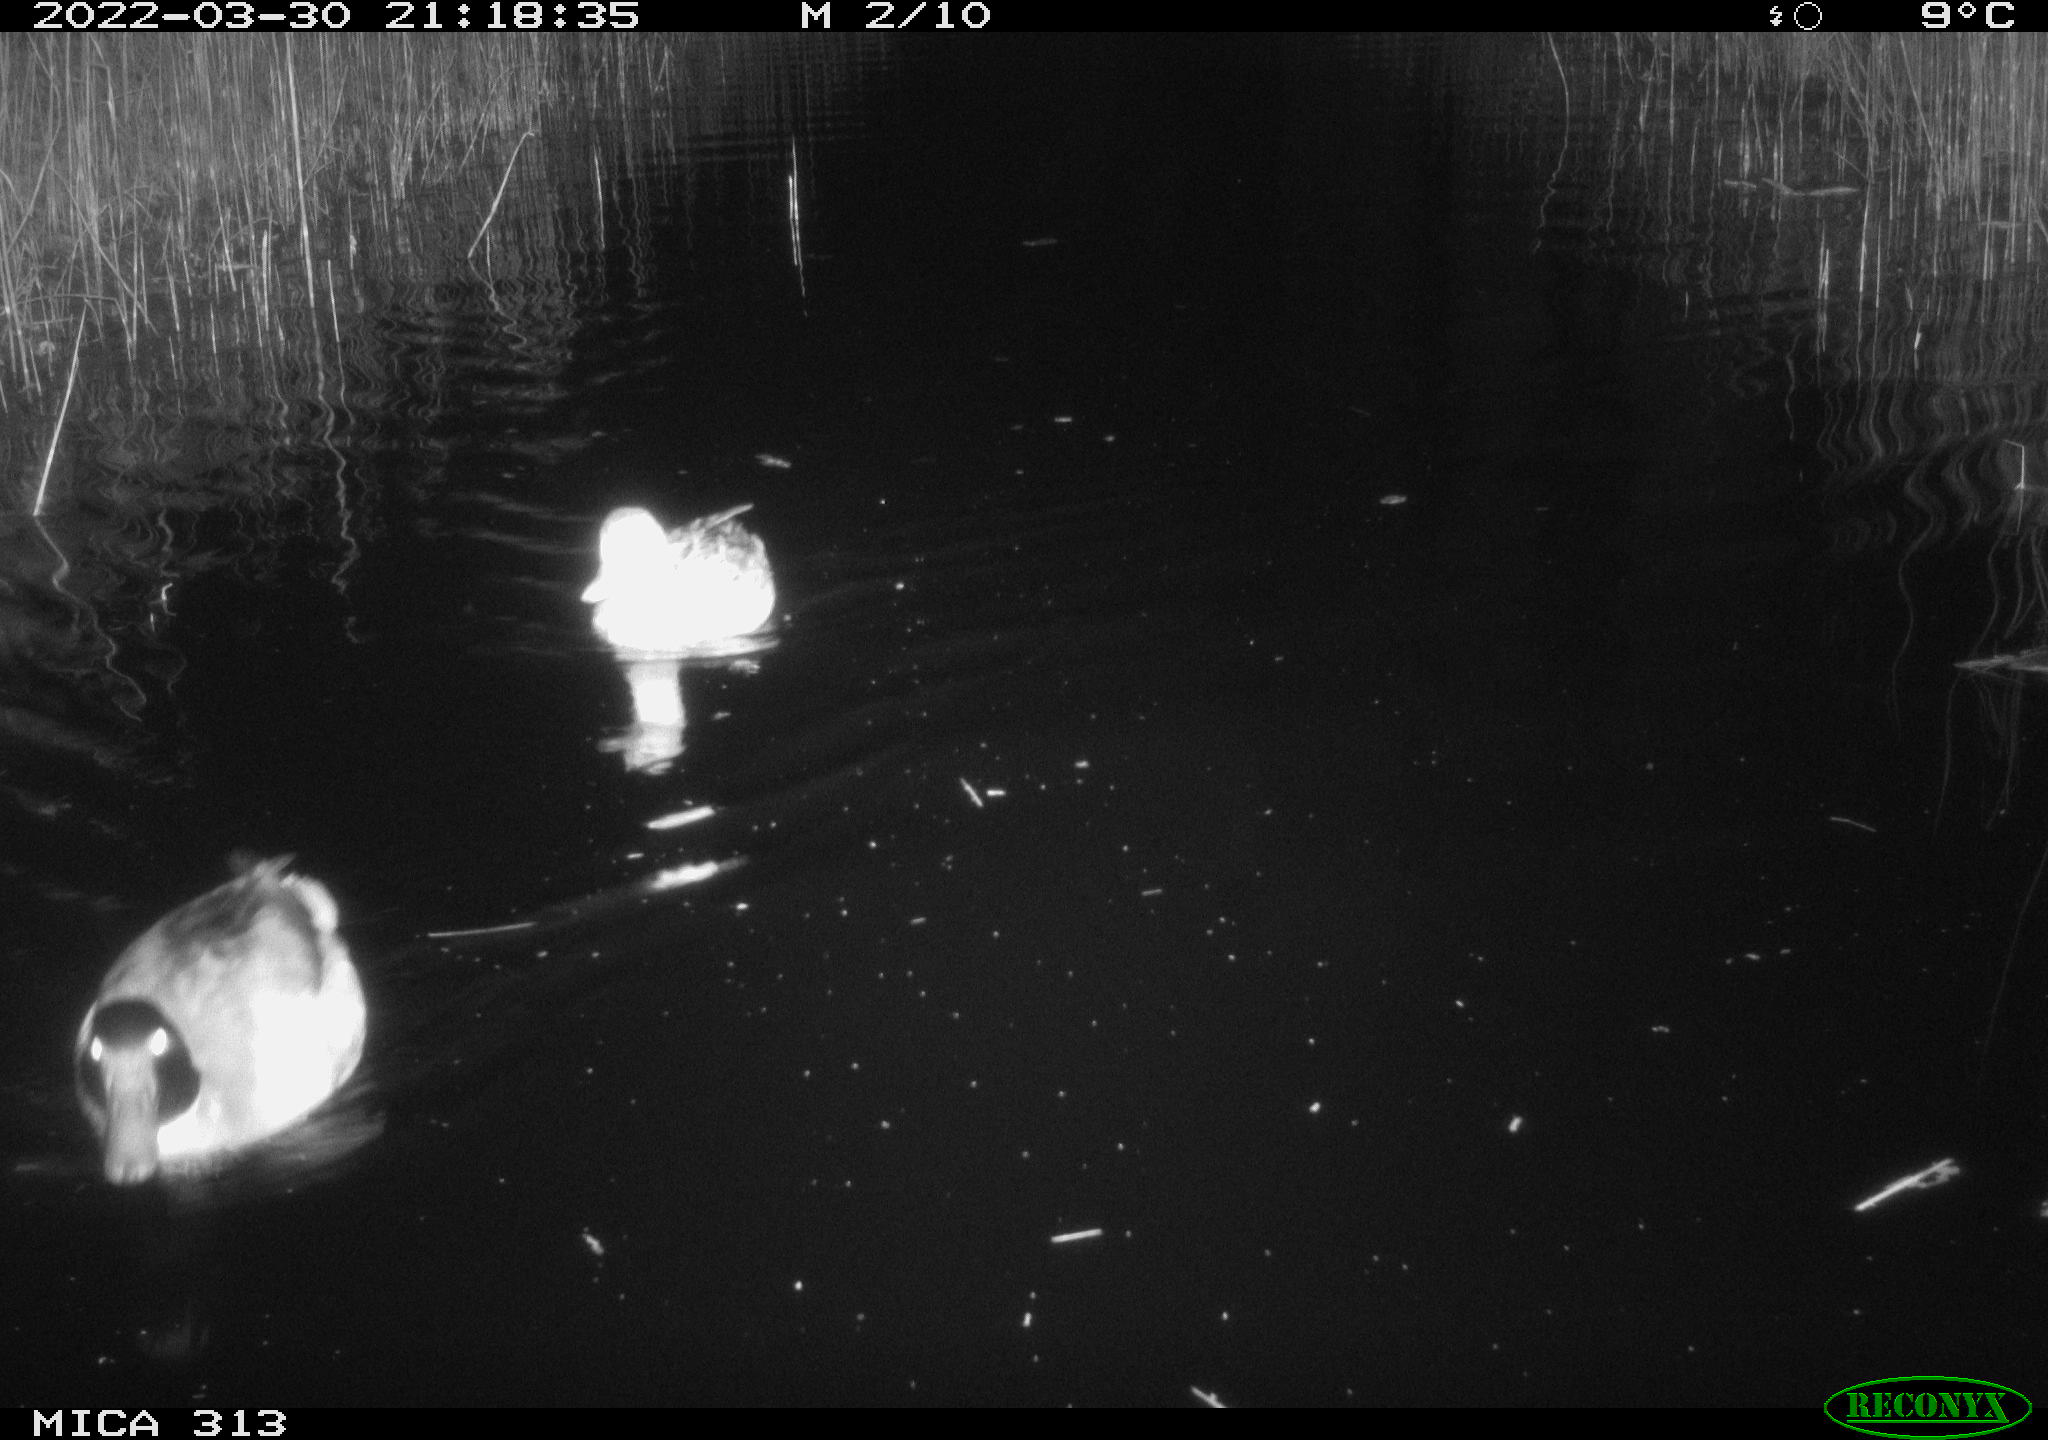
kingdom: Animalia
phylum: Chordata
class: Aves
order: Anseriformes
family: Anatidae
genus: Anas
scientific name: Anas platyrhynchos
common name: Mallard
